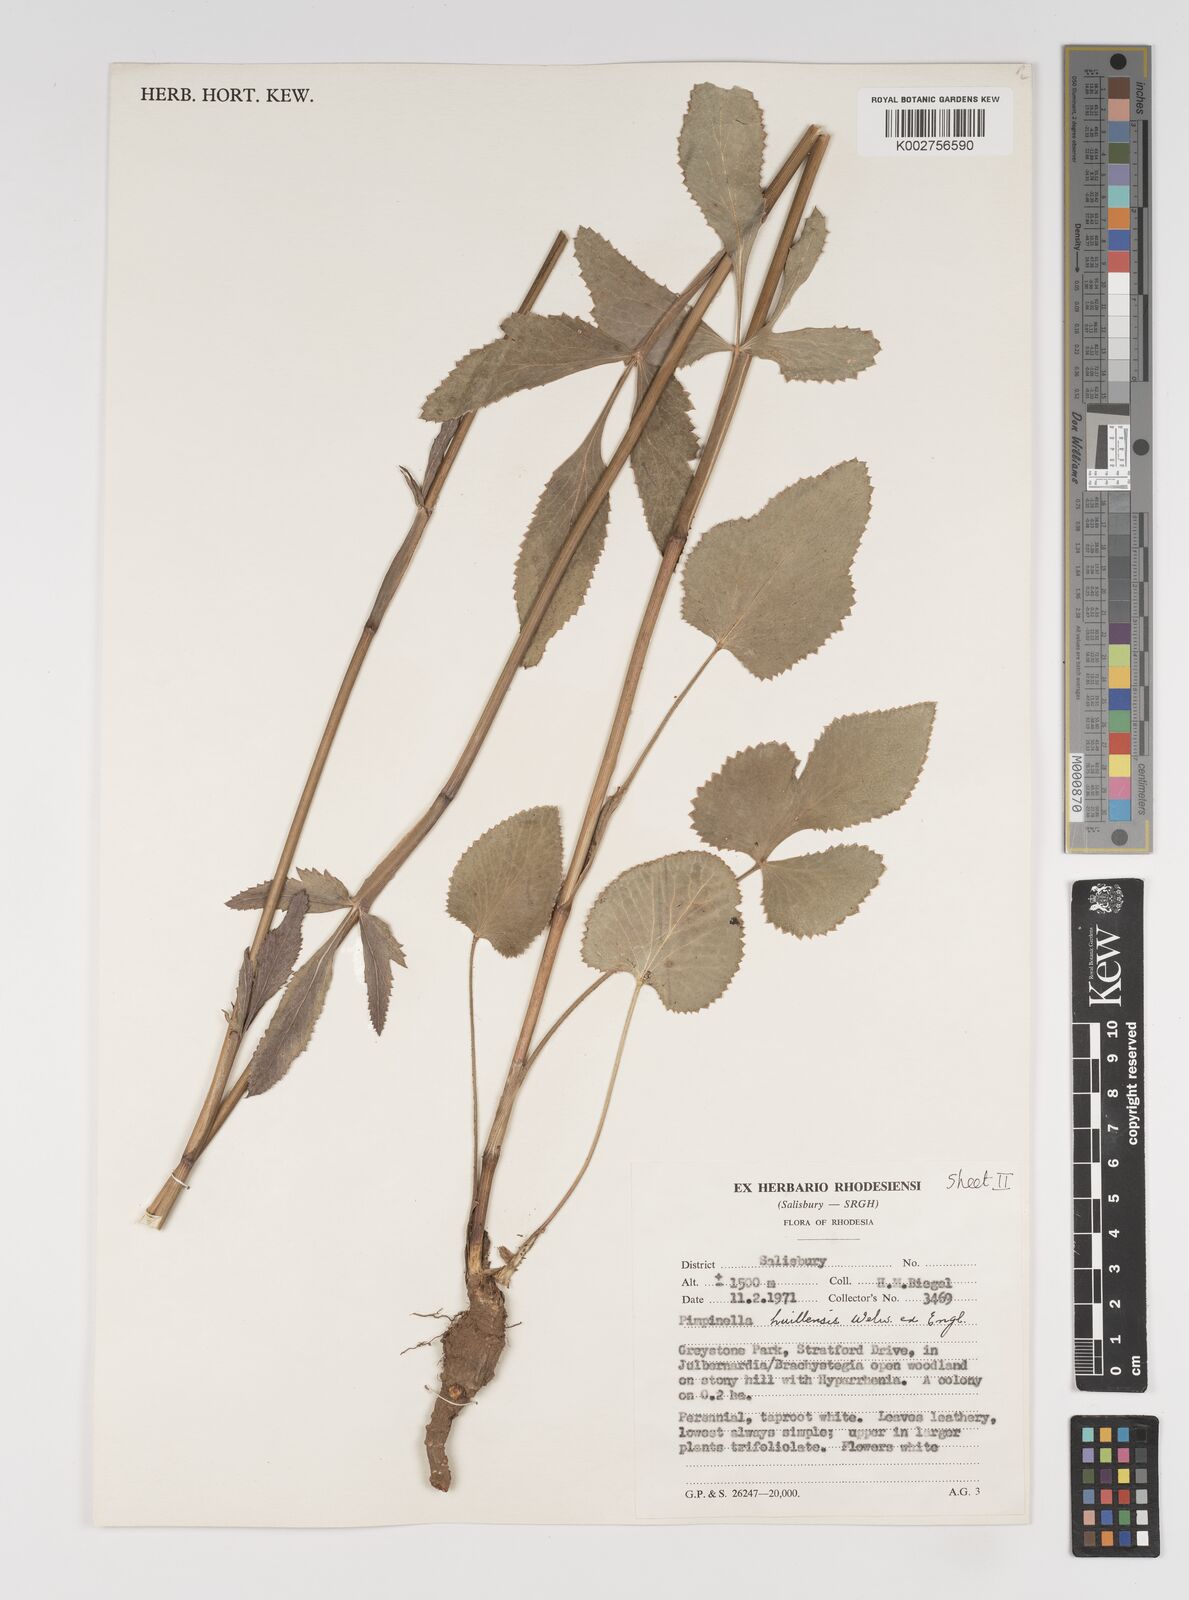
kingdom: Plantae
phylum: Tracheophyta
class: Magnoliopsida
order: Apiales
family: Apiaceae
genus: Pimpinella
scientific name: Pimpinella huillensis
